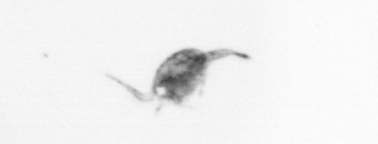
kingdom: Animalia
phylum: Arthropoda
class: Copepoda
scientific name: Copepoda
